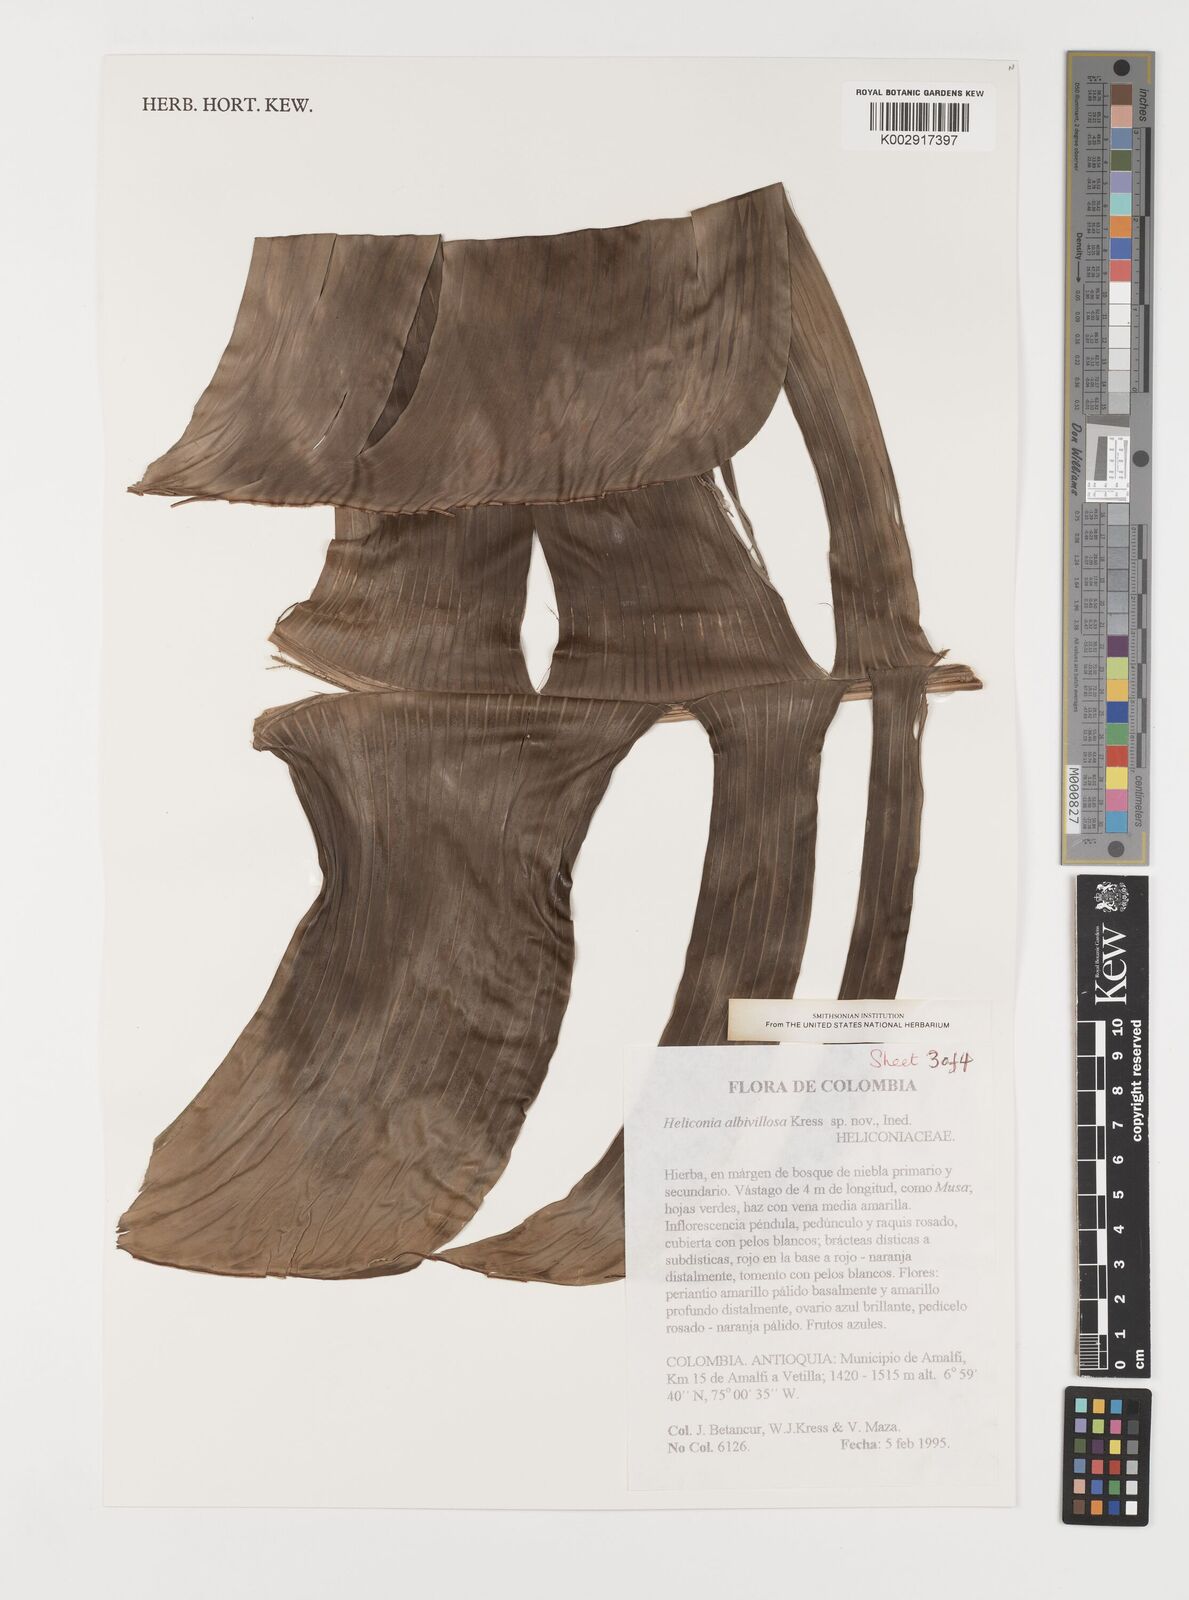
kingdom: Plantae
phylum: Tracheophyta
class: Liliopsida
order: Zingiberales
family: Heliconiaceae
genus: Heliconia
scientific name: Heliconia
